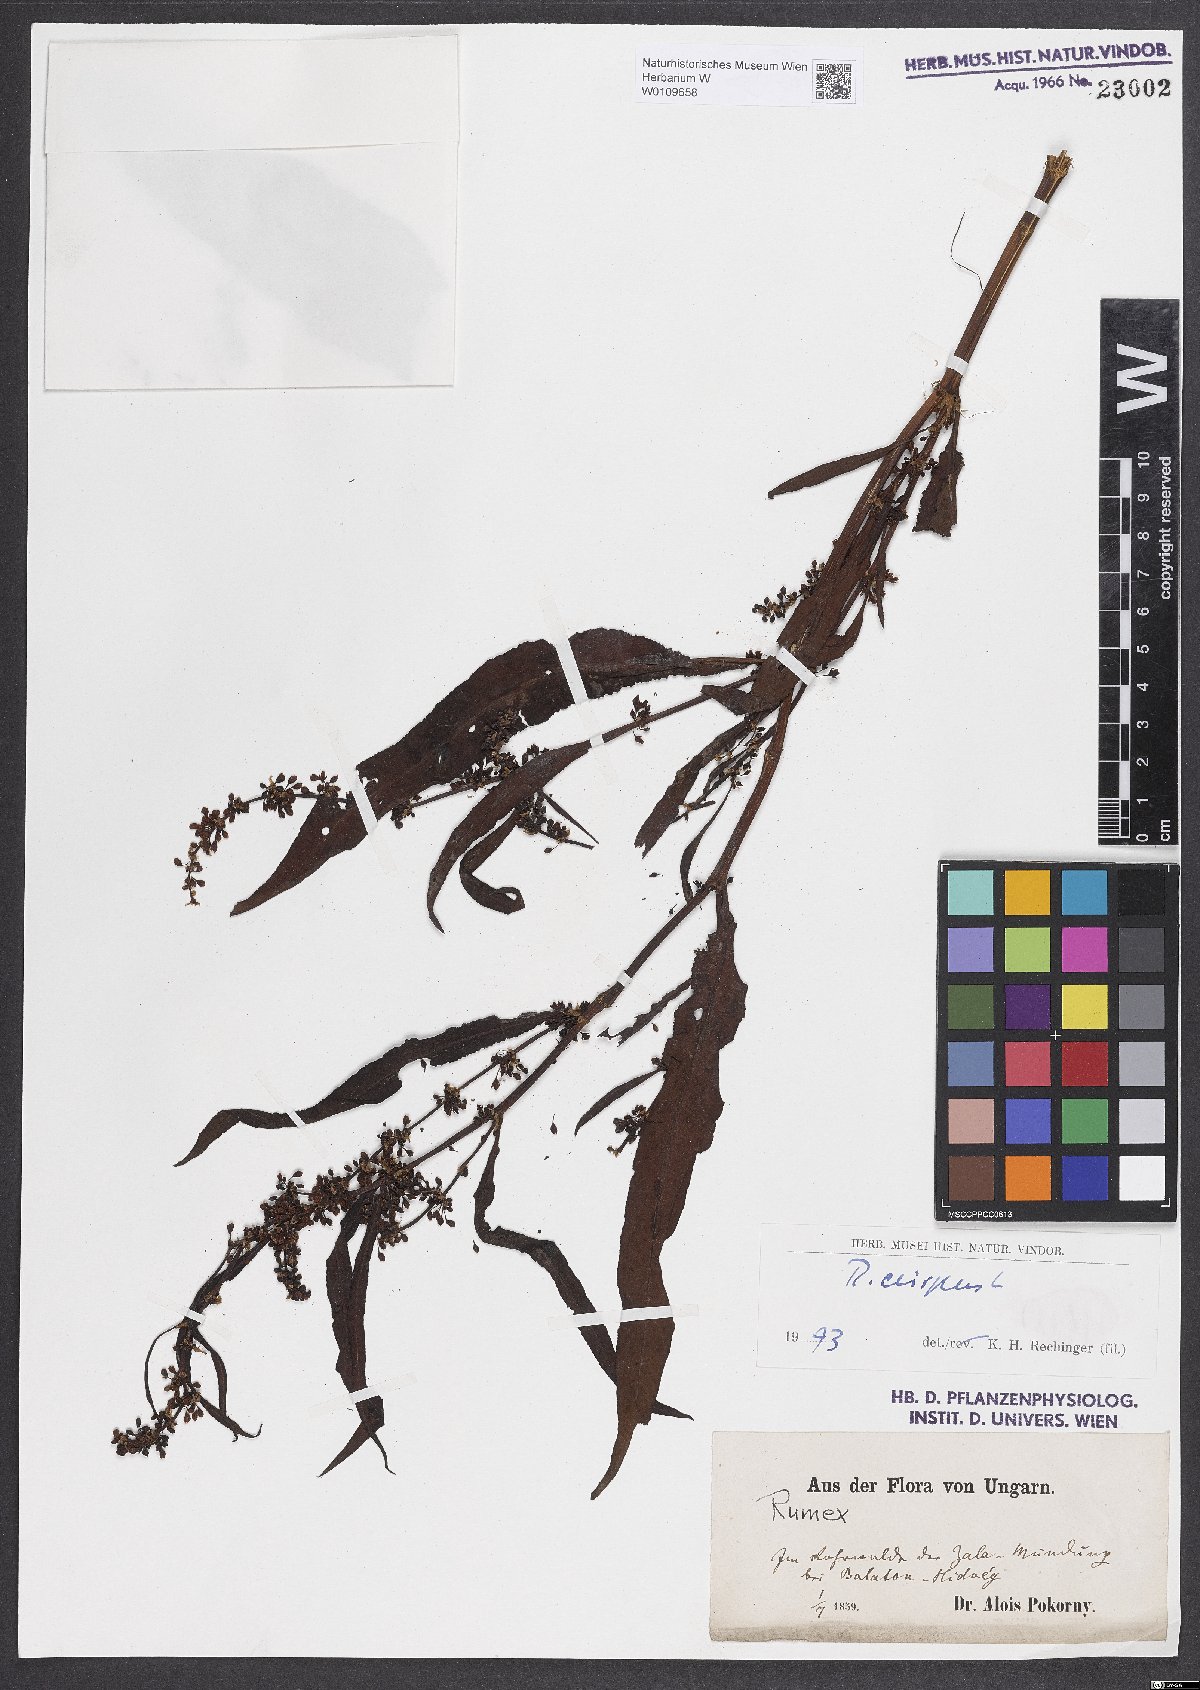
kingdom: Plantae
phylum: Tracheophyta
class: Magnoliopsida
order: Caryophyllales
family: Polygonaceae
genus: Rumex
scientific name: Rumex crispus
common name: Curled dock
